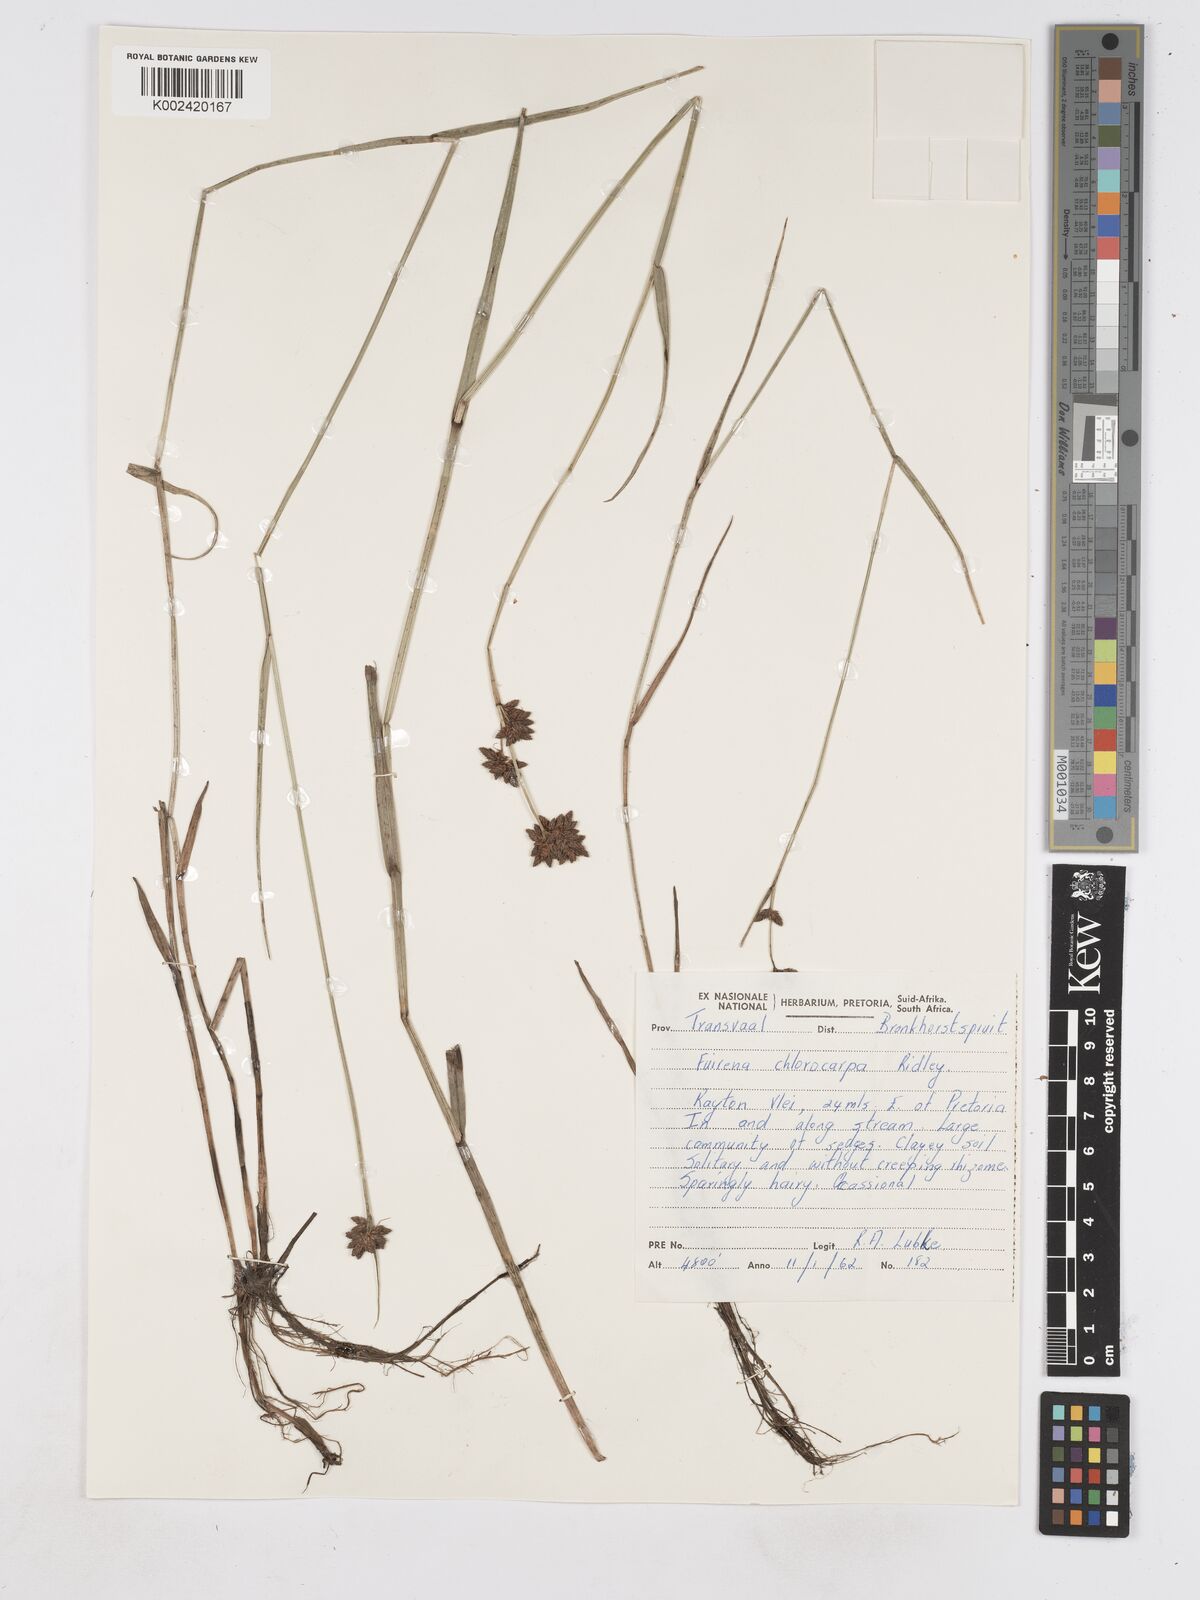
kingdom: Plantae
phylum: Tracheophyta
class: Liliopsida
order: Poales
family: Cyperaceae
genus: Fuirena
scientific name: Fuirena stricta
